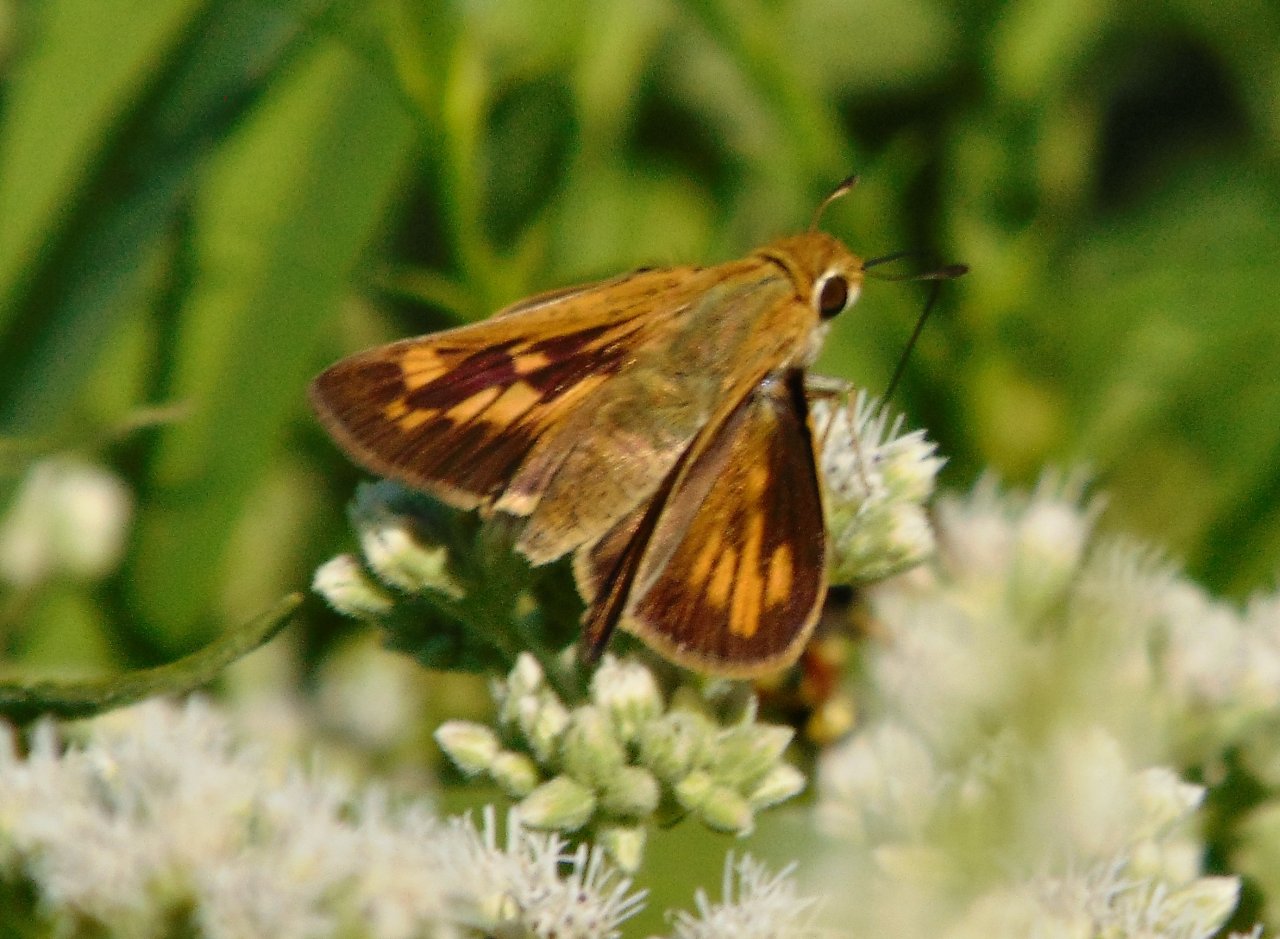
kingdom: Animalia
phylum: Arthropoda
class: Insecta
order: Lepidoptera
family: Hesperiidae
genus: Hylephila
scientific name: Hylephila phyleus
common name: Fiery Skipper
